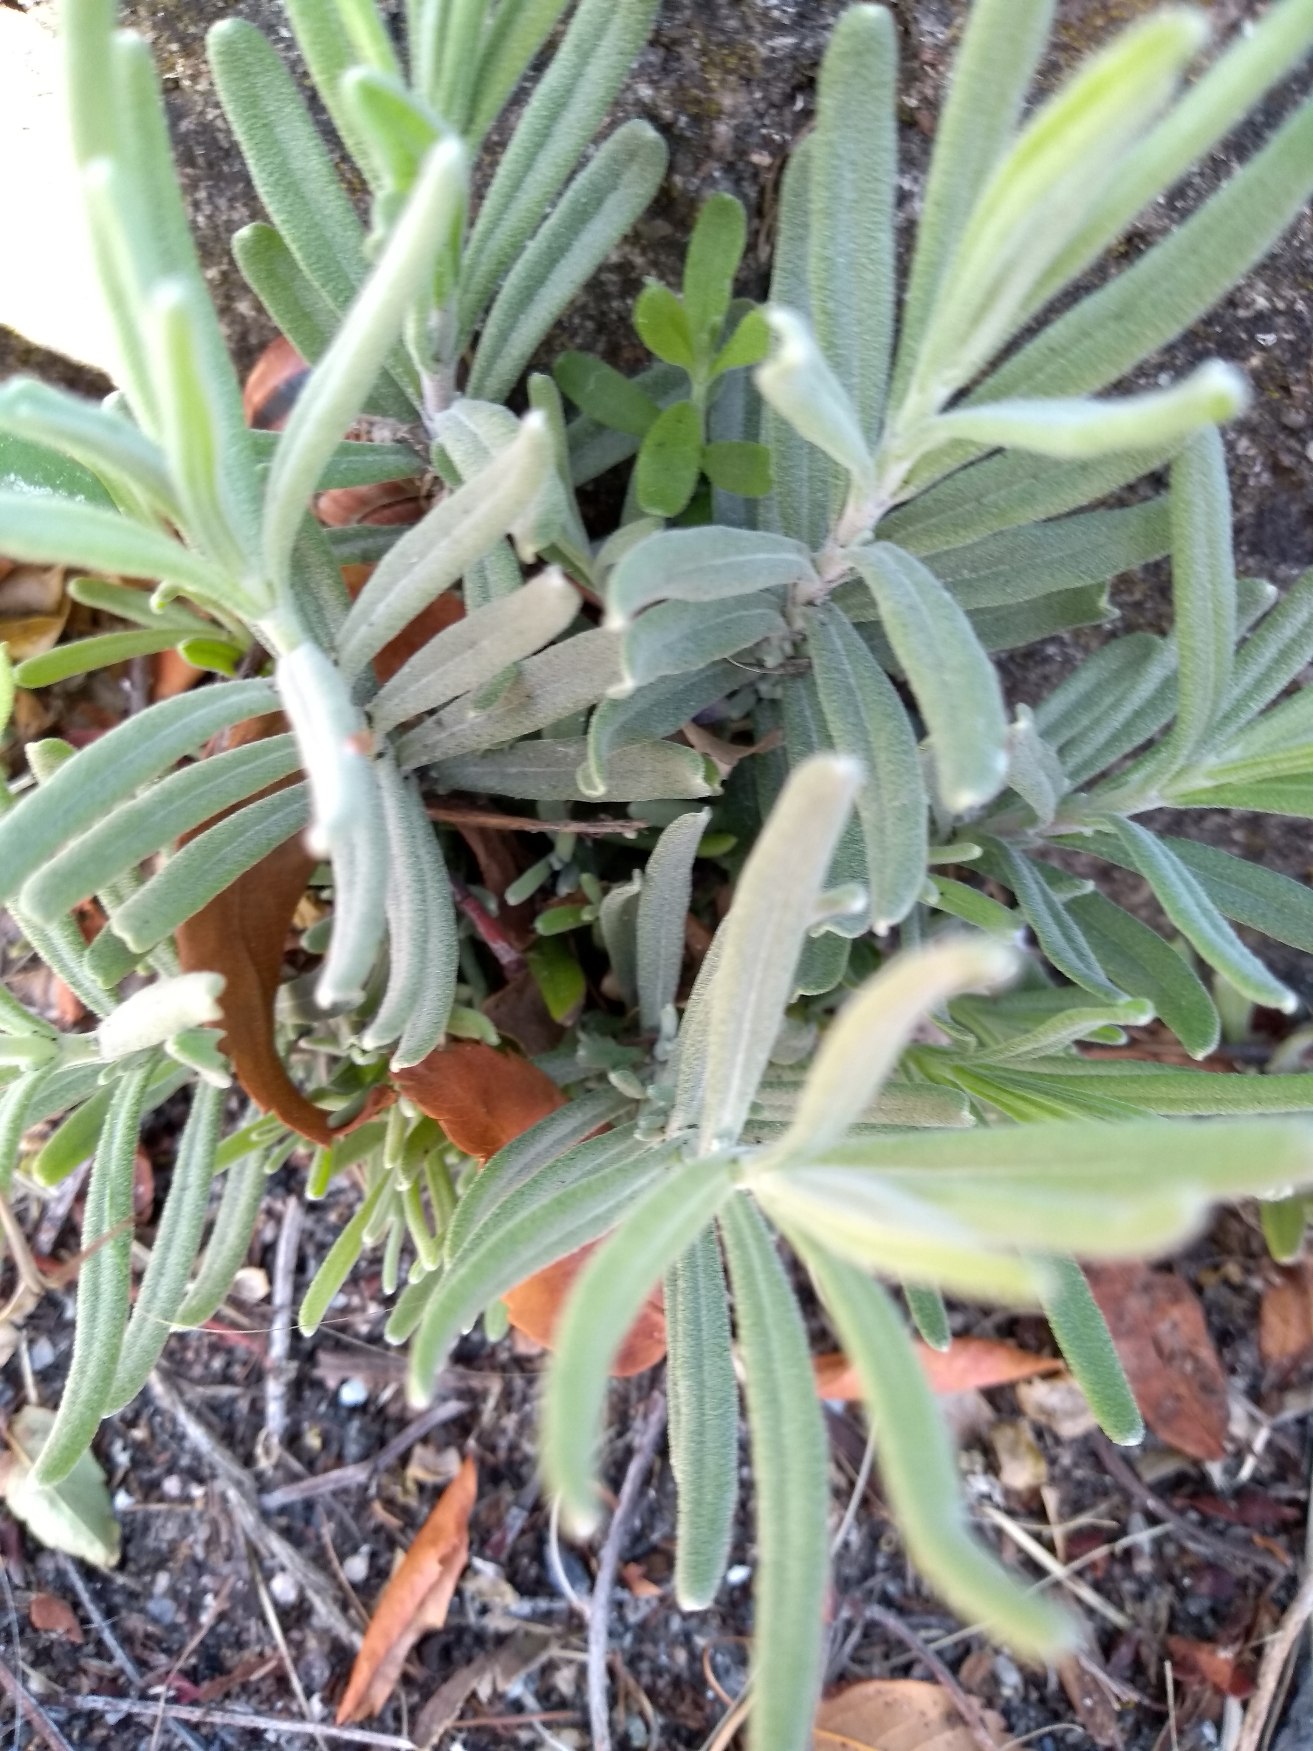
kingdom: Plantae
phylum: Tracheophyta
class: Magnoliopsida
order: Lamiales
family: Lamiaceae
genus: Lavandula
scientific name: Lavandula angustifolia
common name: Ægte lavendel
